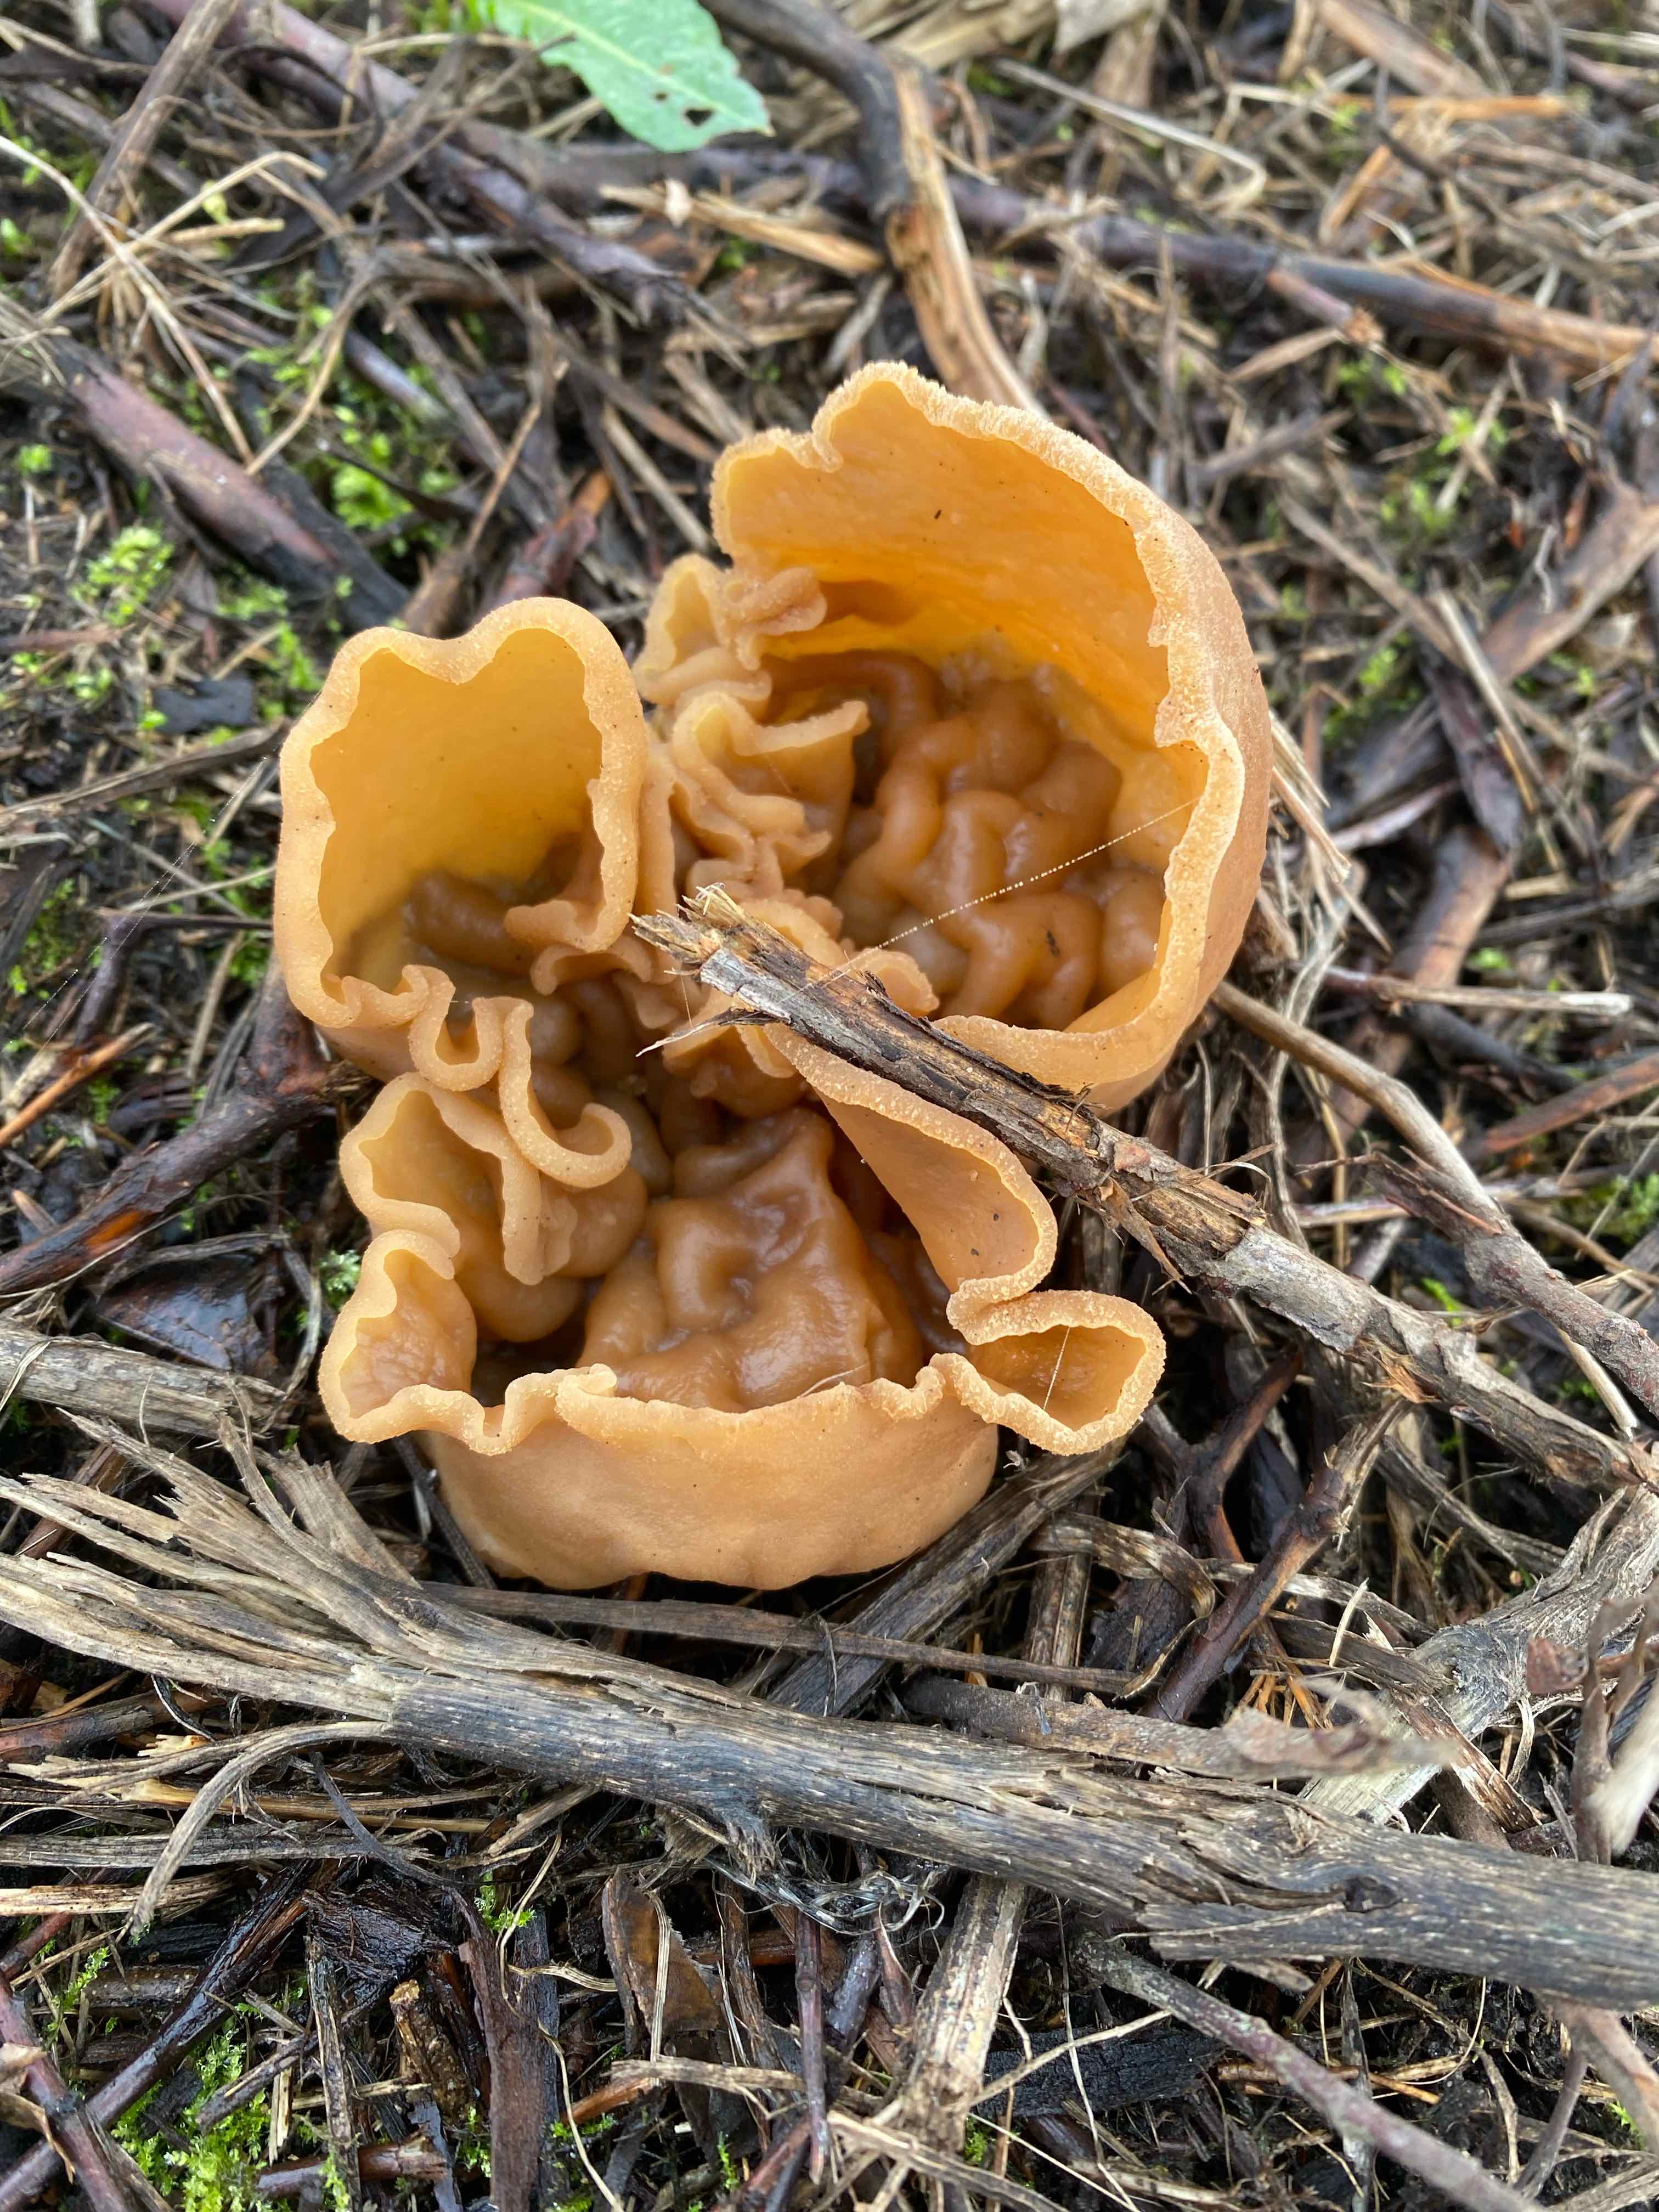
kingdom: Fungi
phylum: Ascomycota
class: Pezizomycetes
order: Pezizales
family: Pezizaceae
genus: Peziza
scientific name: Peziza vesiculosa
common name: blære-bægersvamp
